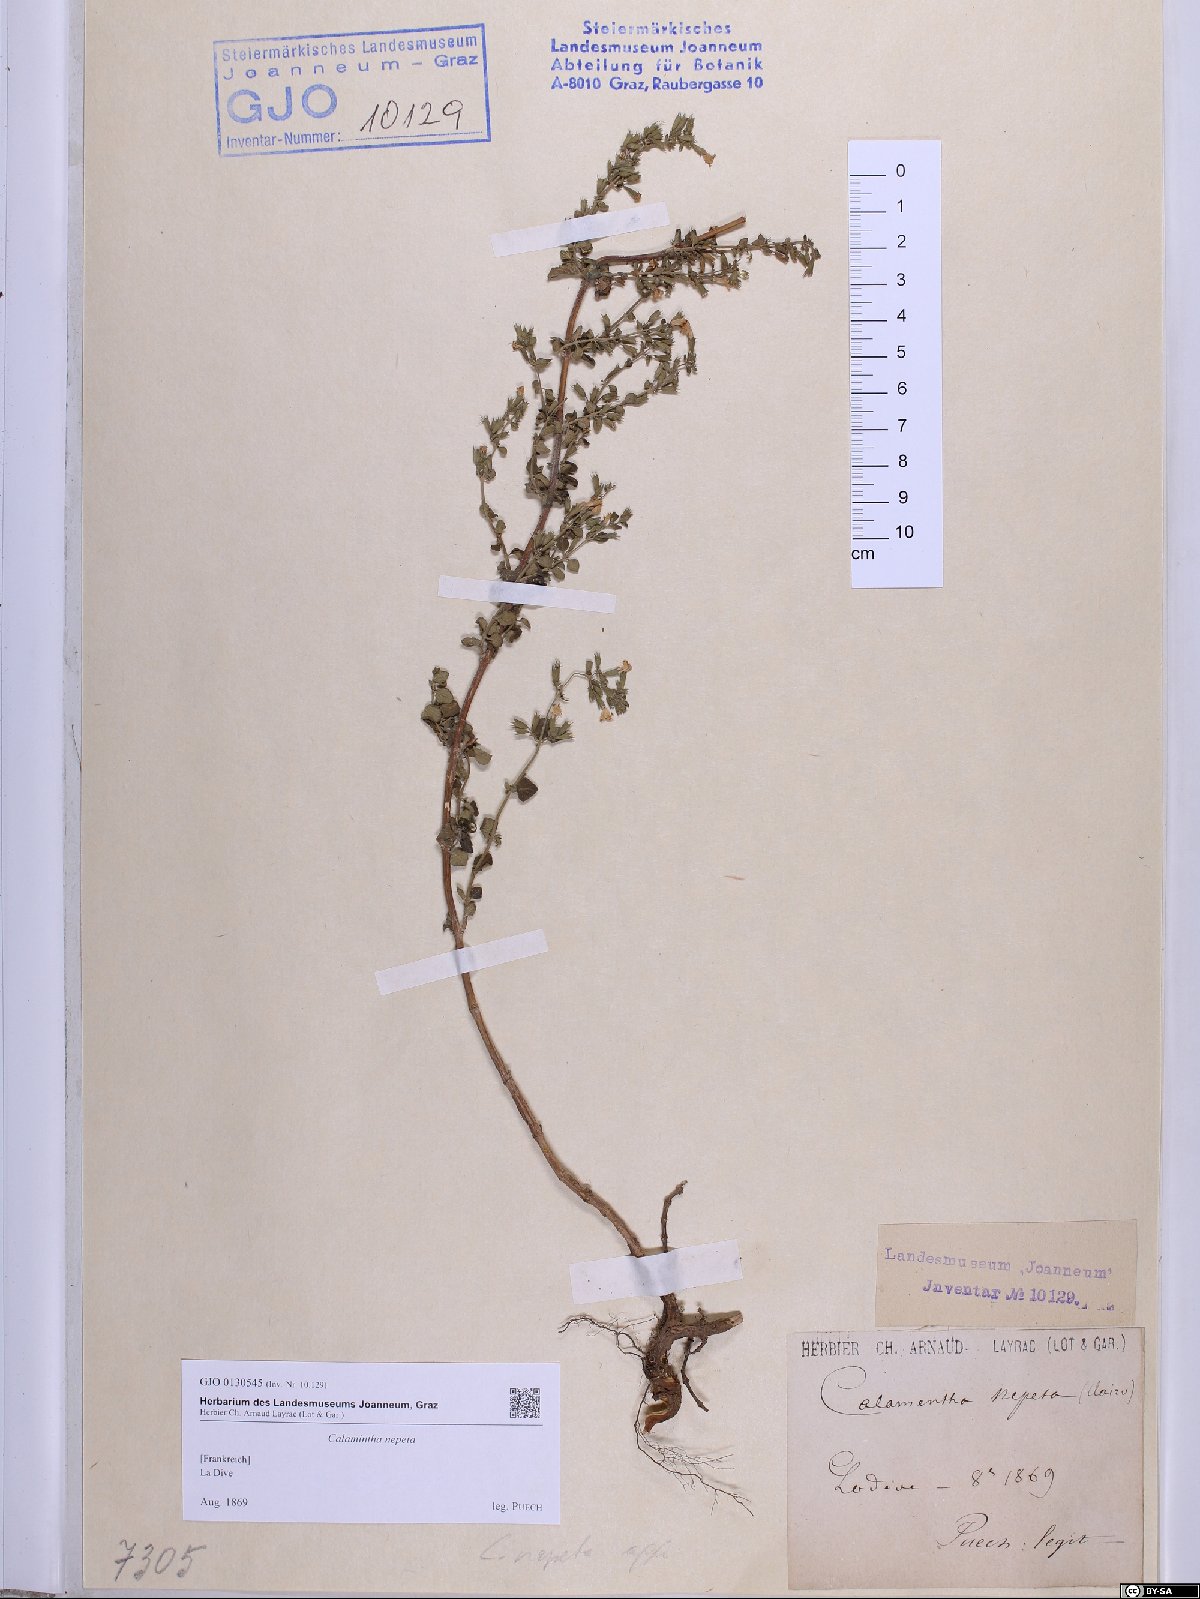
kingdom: Plantae
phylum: Tracheophyta
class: Magnoliopsida
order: Lamiales
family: Lamiaceae
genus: Clinopodium
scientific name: Clinopodium nepeta
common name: Lesser calamint
